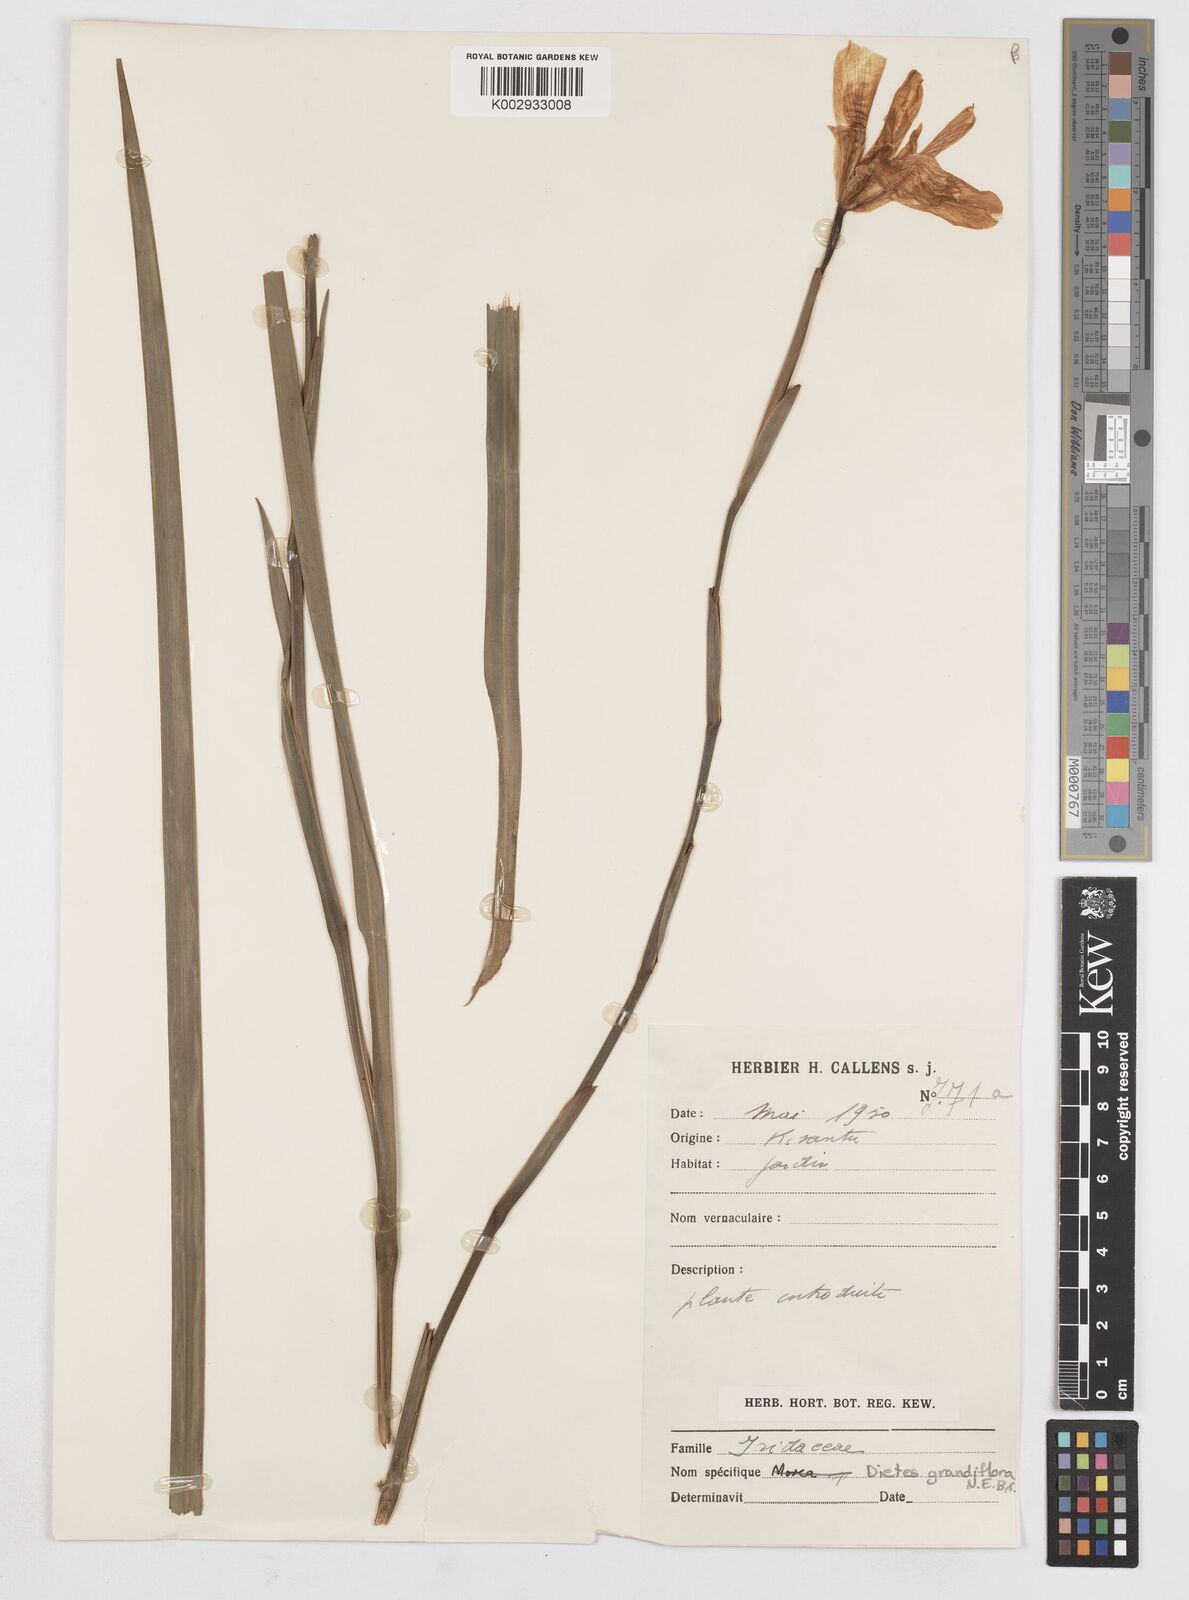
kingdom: Plantae
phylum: Tracheophyta
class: Liliopsida
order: Asparagales
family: Iridaceae
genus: Dietes
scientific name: Dietes grandiflora
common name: Wild iris
